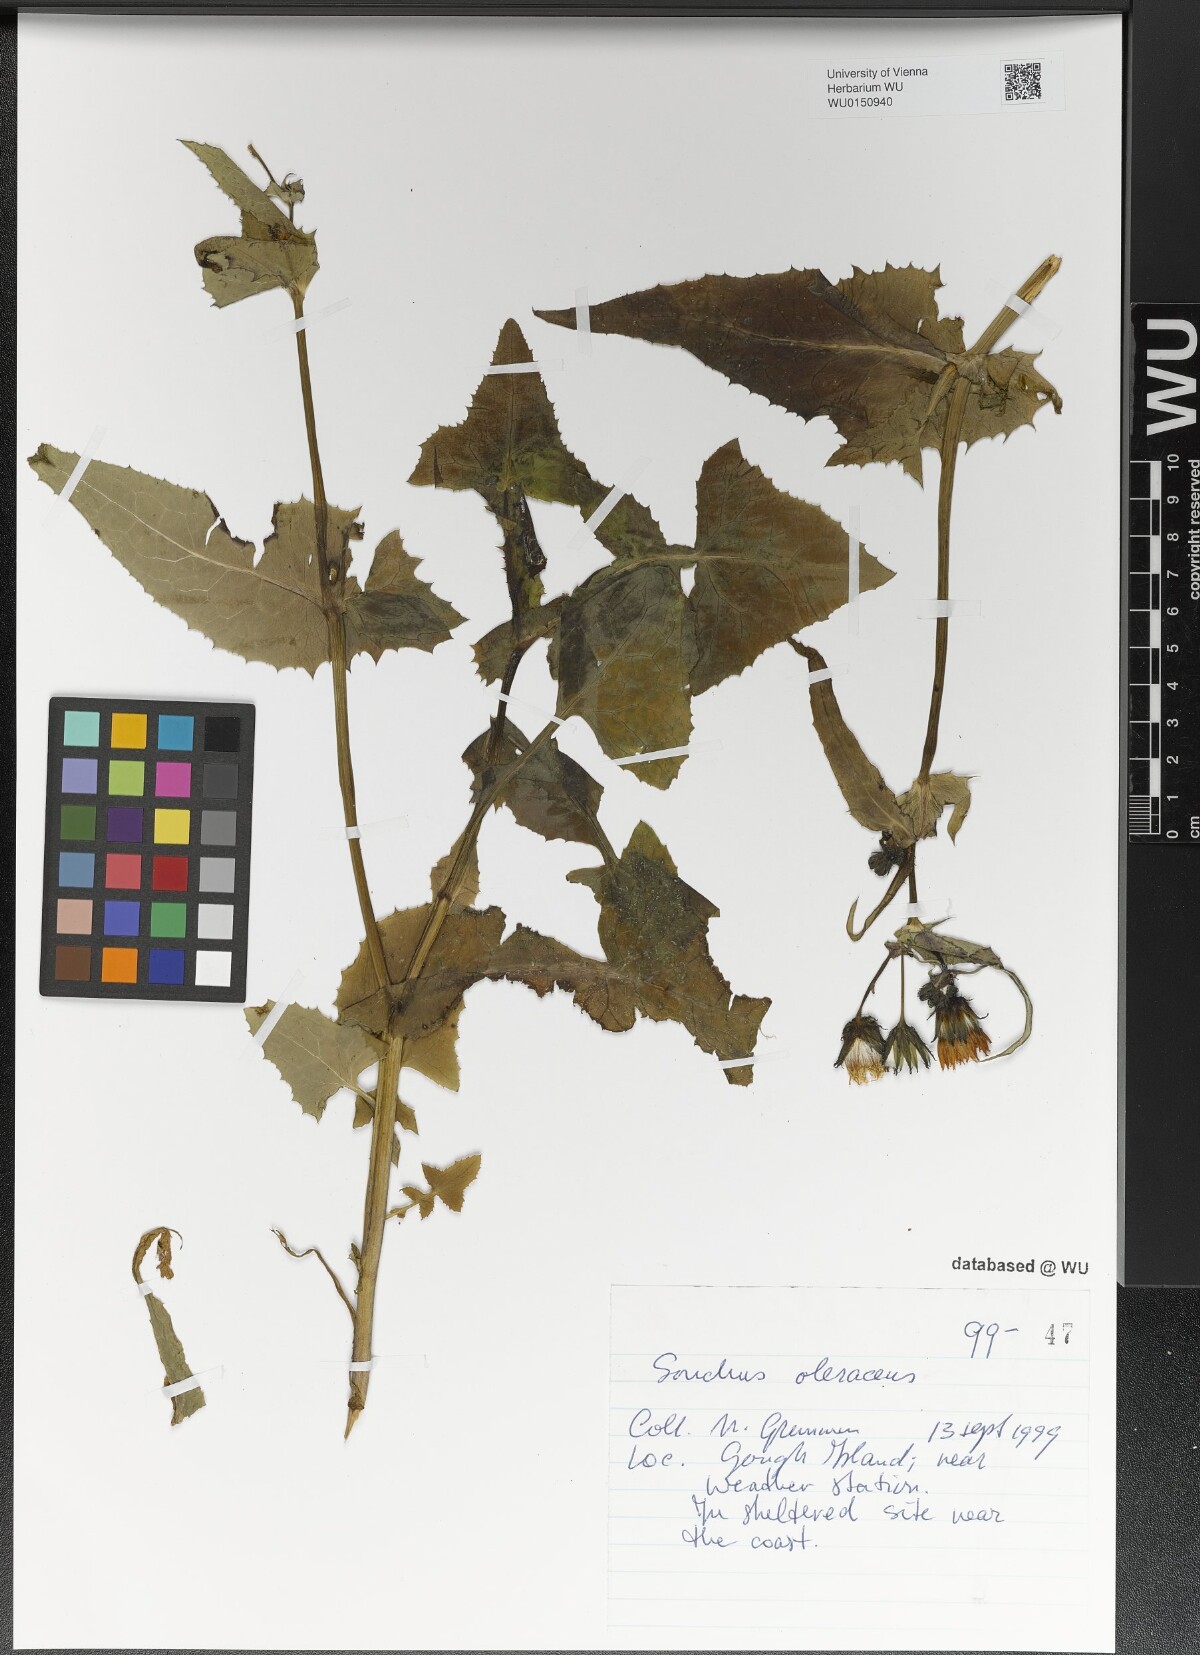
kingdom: Plantae
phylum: Tracheophyta
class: Magnoliopsida
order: Asterales
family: Asteraceae
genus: Sonchus
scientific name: Sonchus oleraceus
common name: Common sowthistle
